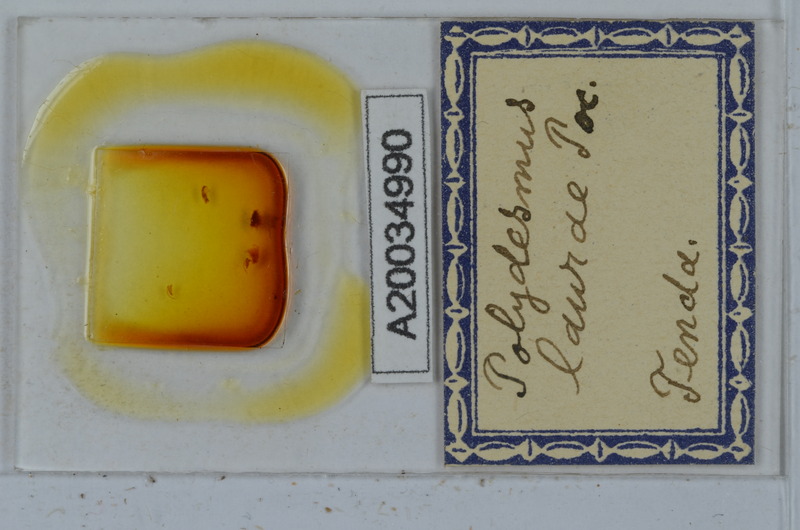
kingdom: Animalia
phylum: Arthropoda
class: Diplopoda
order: Polydesmida
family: Polydesmidae
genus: Propolydesmus
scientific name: Propolydesmus testaceus
